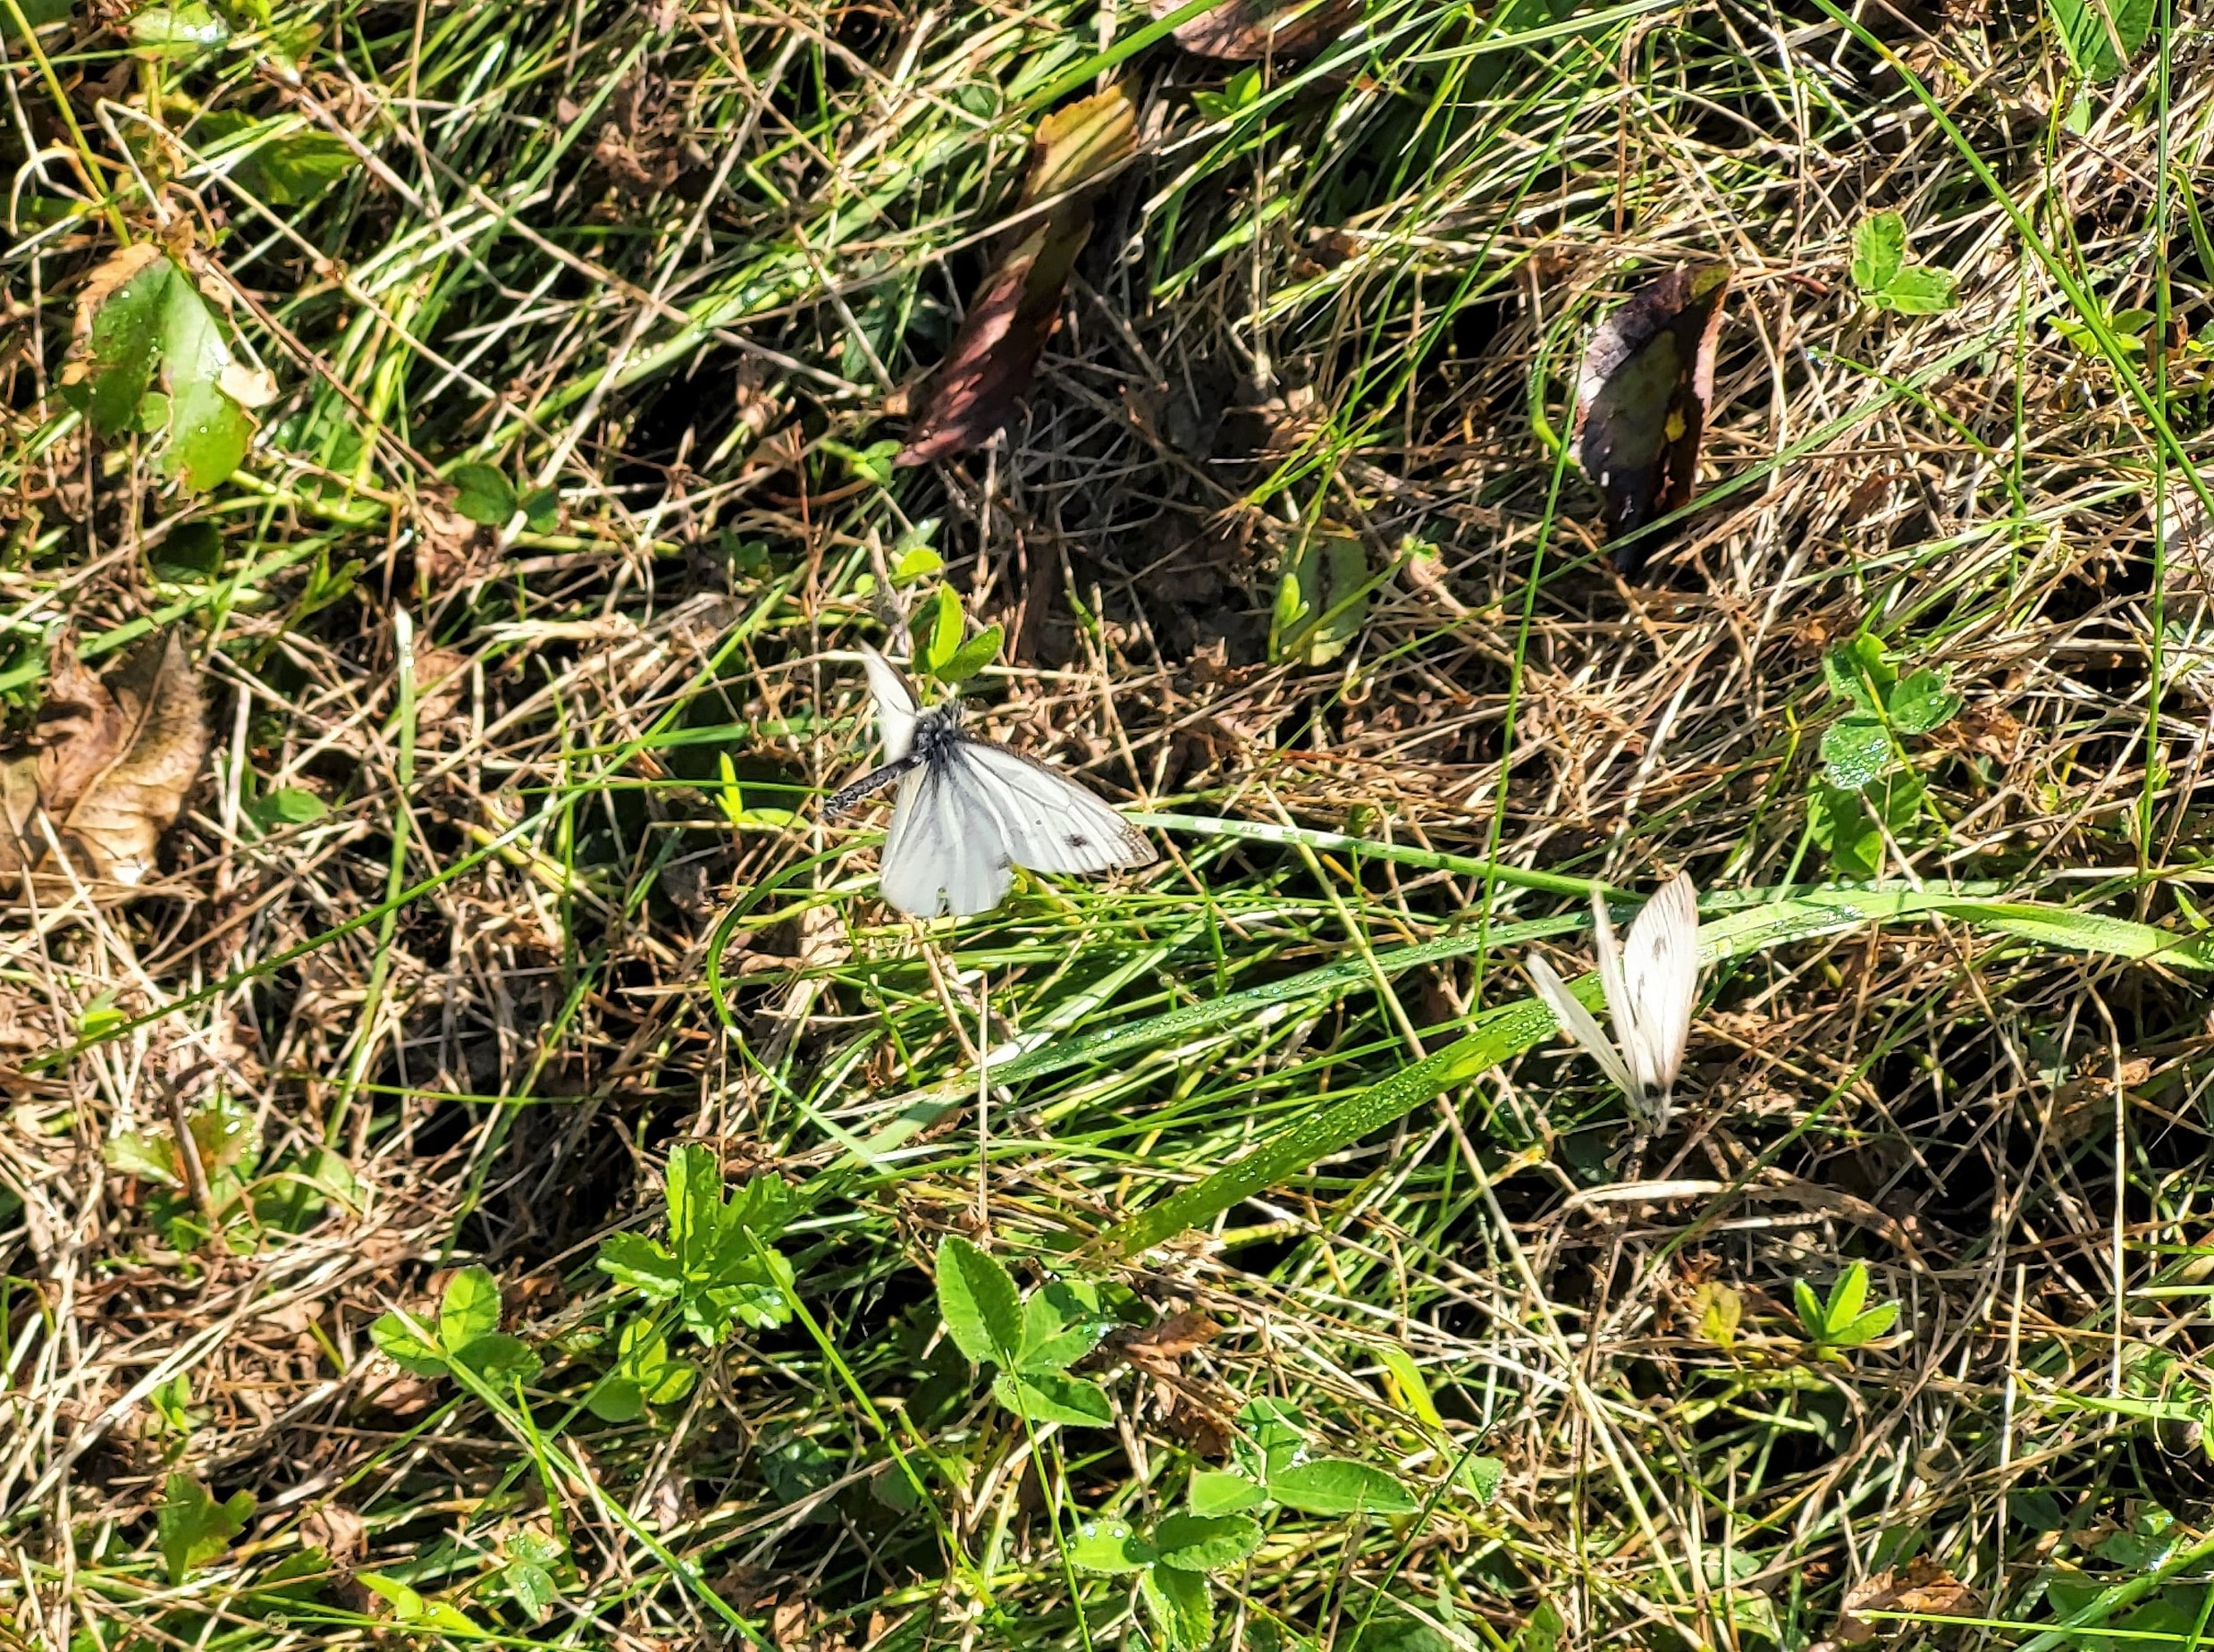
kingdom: Animalia
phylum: Arthropoda
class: Insecta
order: Lepidoptera
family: Pieridae
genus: Pieris
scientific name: Pieris napi
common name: Grønåret kålsommerfugl
